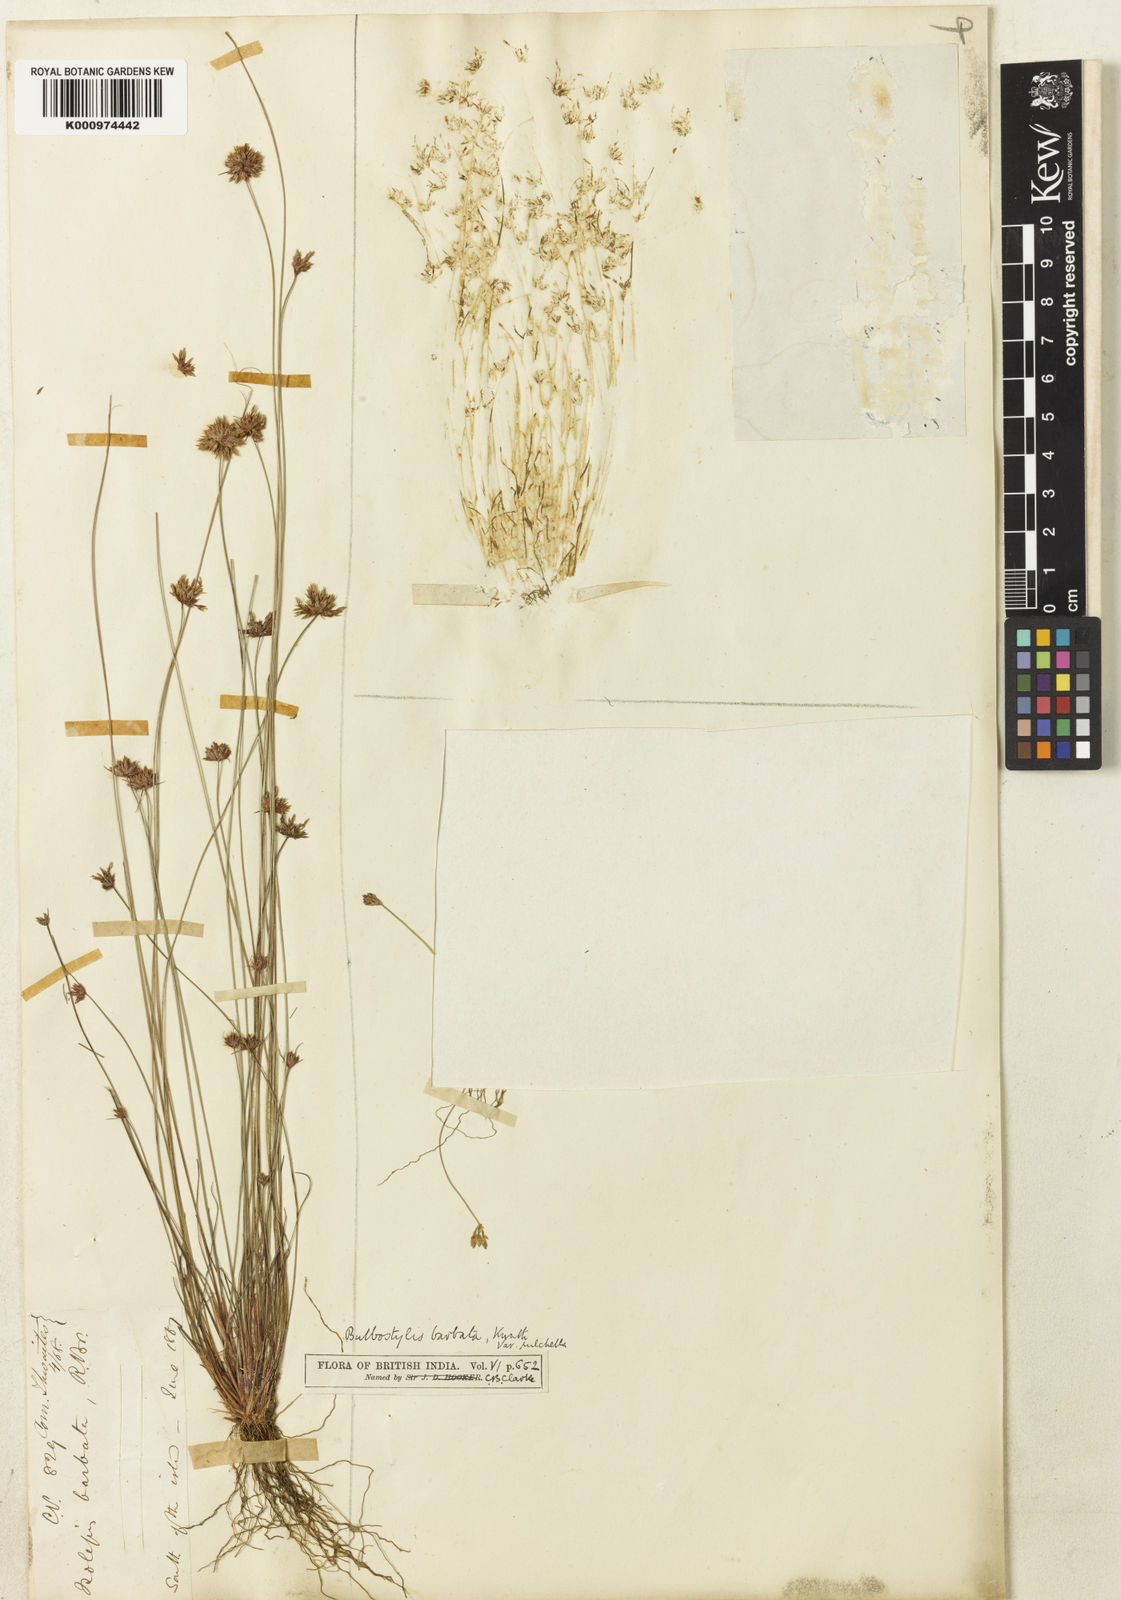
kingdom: Plantae
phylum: Tracheophyta
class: Liliopsida
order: Poales
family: Cyperaceae
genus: Bulbostylis
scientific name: Bulbostylis barbata
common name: Watergrass
